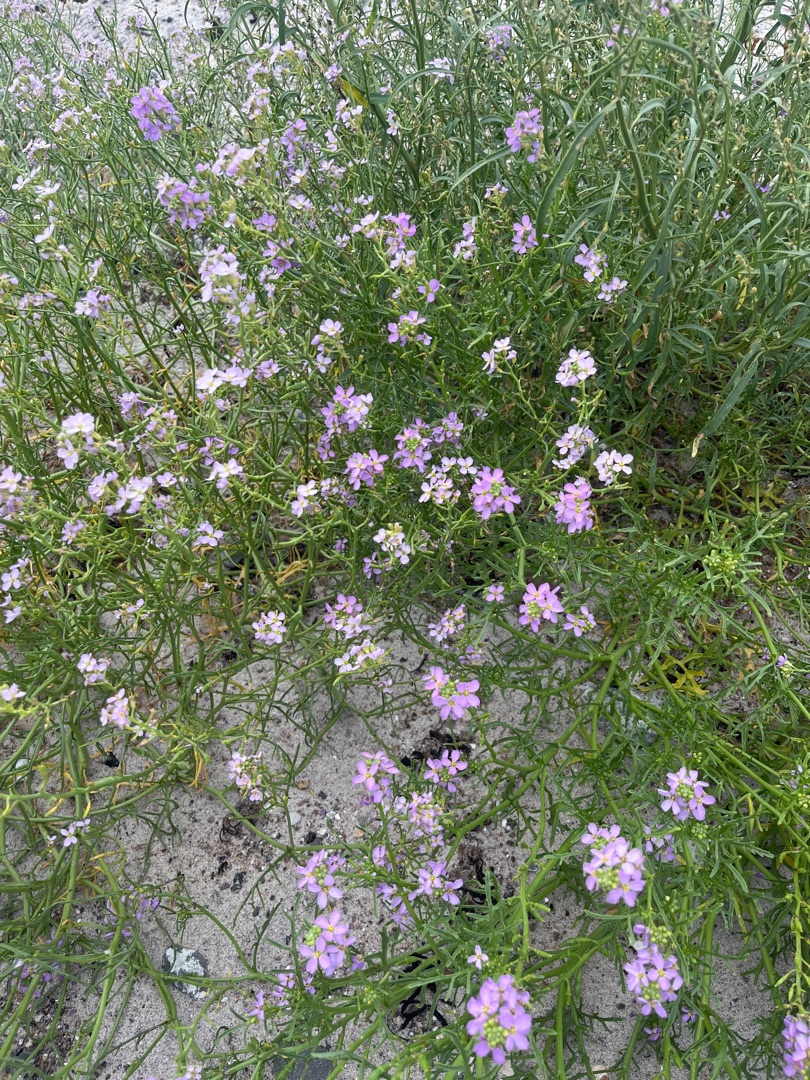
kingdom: Plantae
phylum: Tracheophyta
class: Magnoliopsida
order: Brassicales
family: Brassicaceae
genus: Cakile
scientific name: Cakile maritima
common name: Strandsennep
